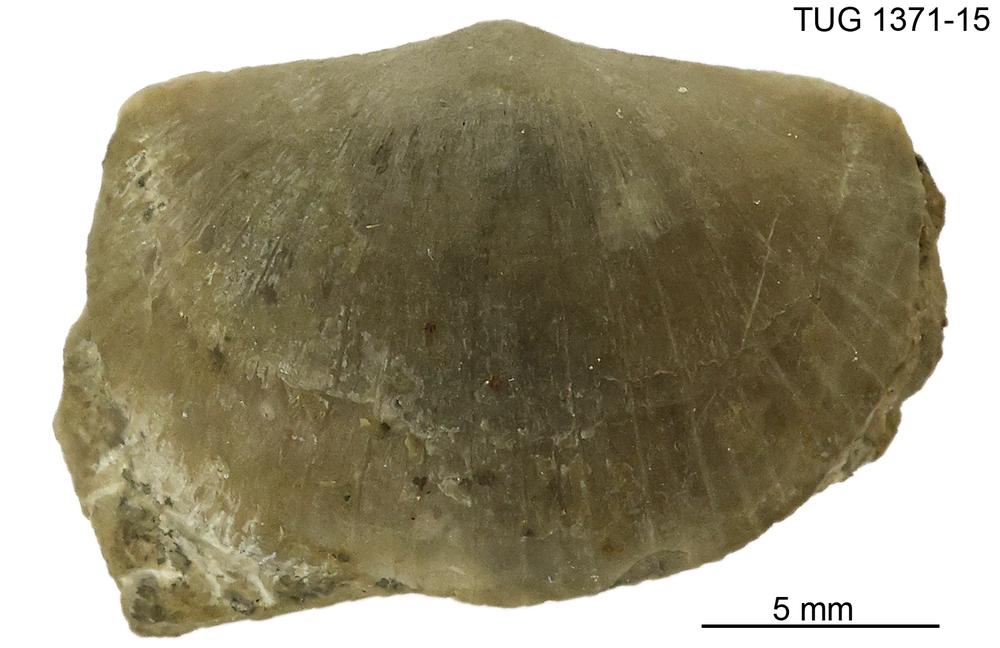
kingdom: Animalia
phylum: Brachiopoda
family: Sowerbyellidae
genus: Eochonetes
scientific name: Eochonetes
